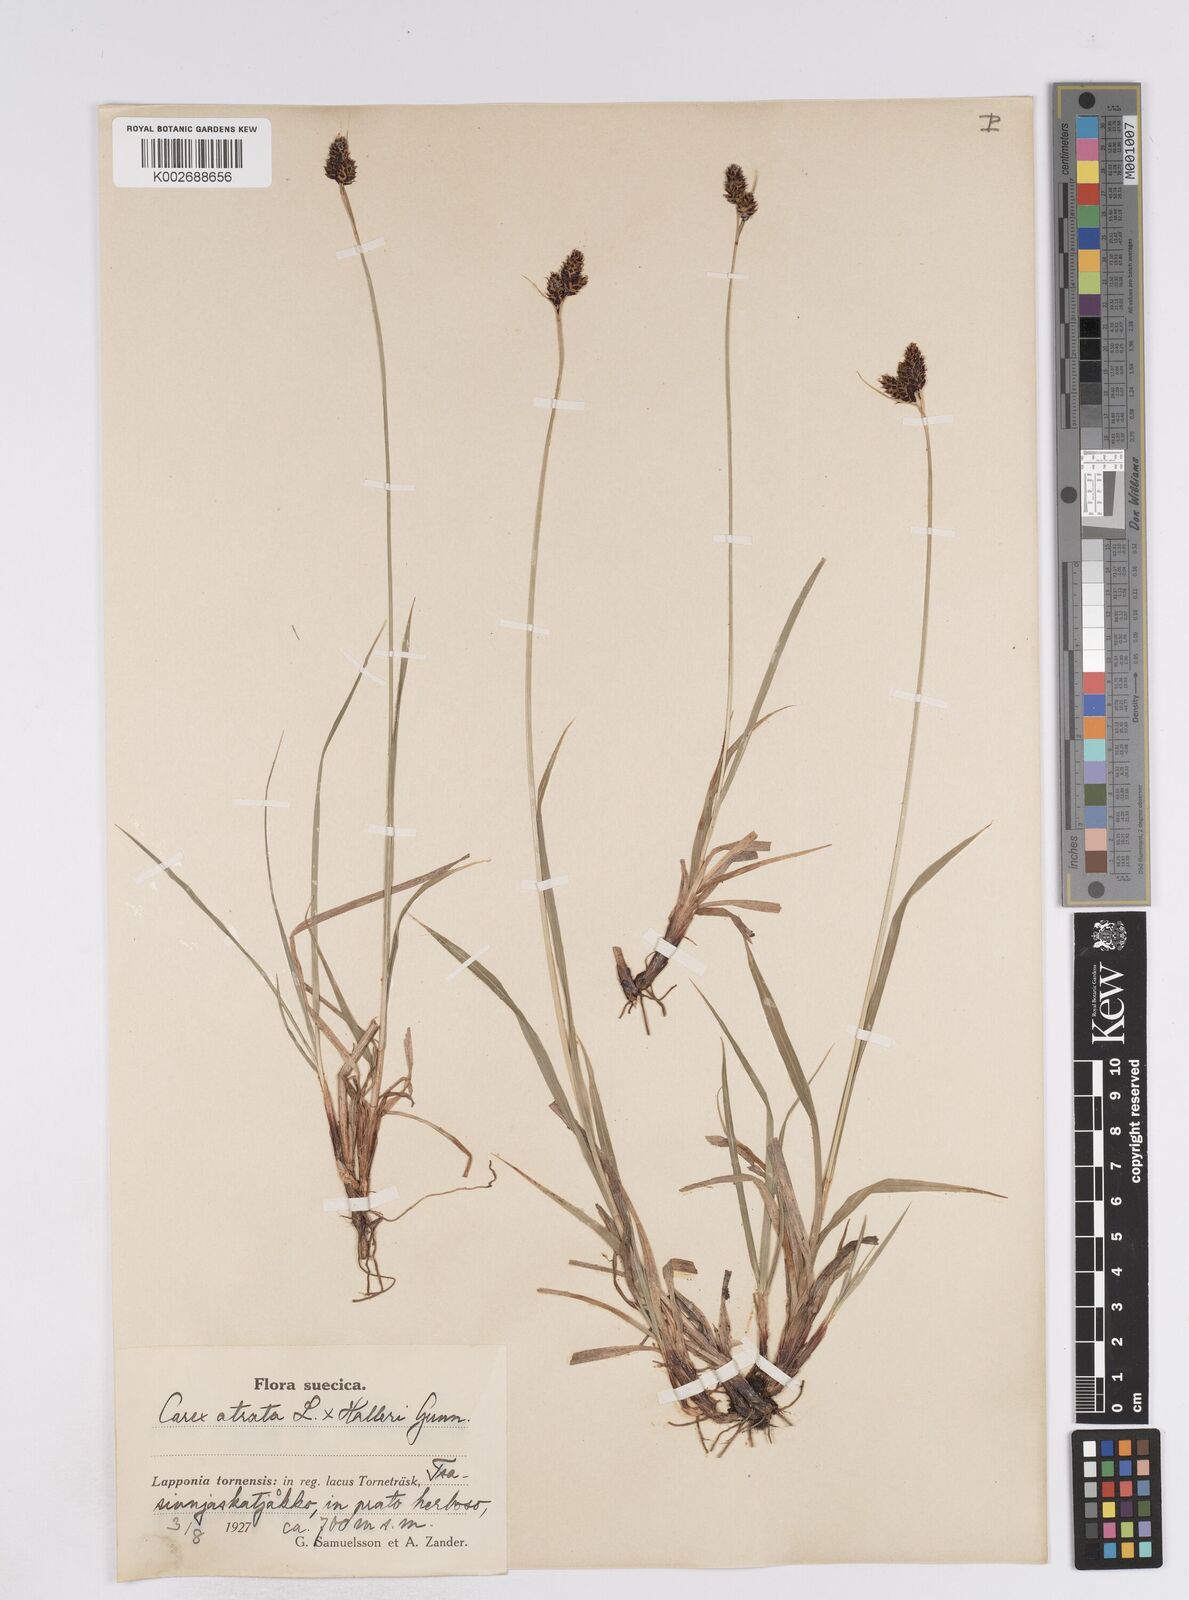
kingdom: Plantae
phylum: Tracheophyta
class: Liliopsida
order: Poales
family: Cyperaceae
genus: Carex
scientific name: Carex norvegica
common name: Close-headed alpine-sedge
